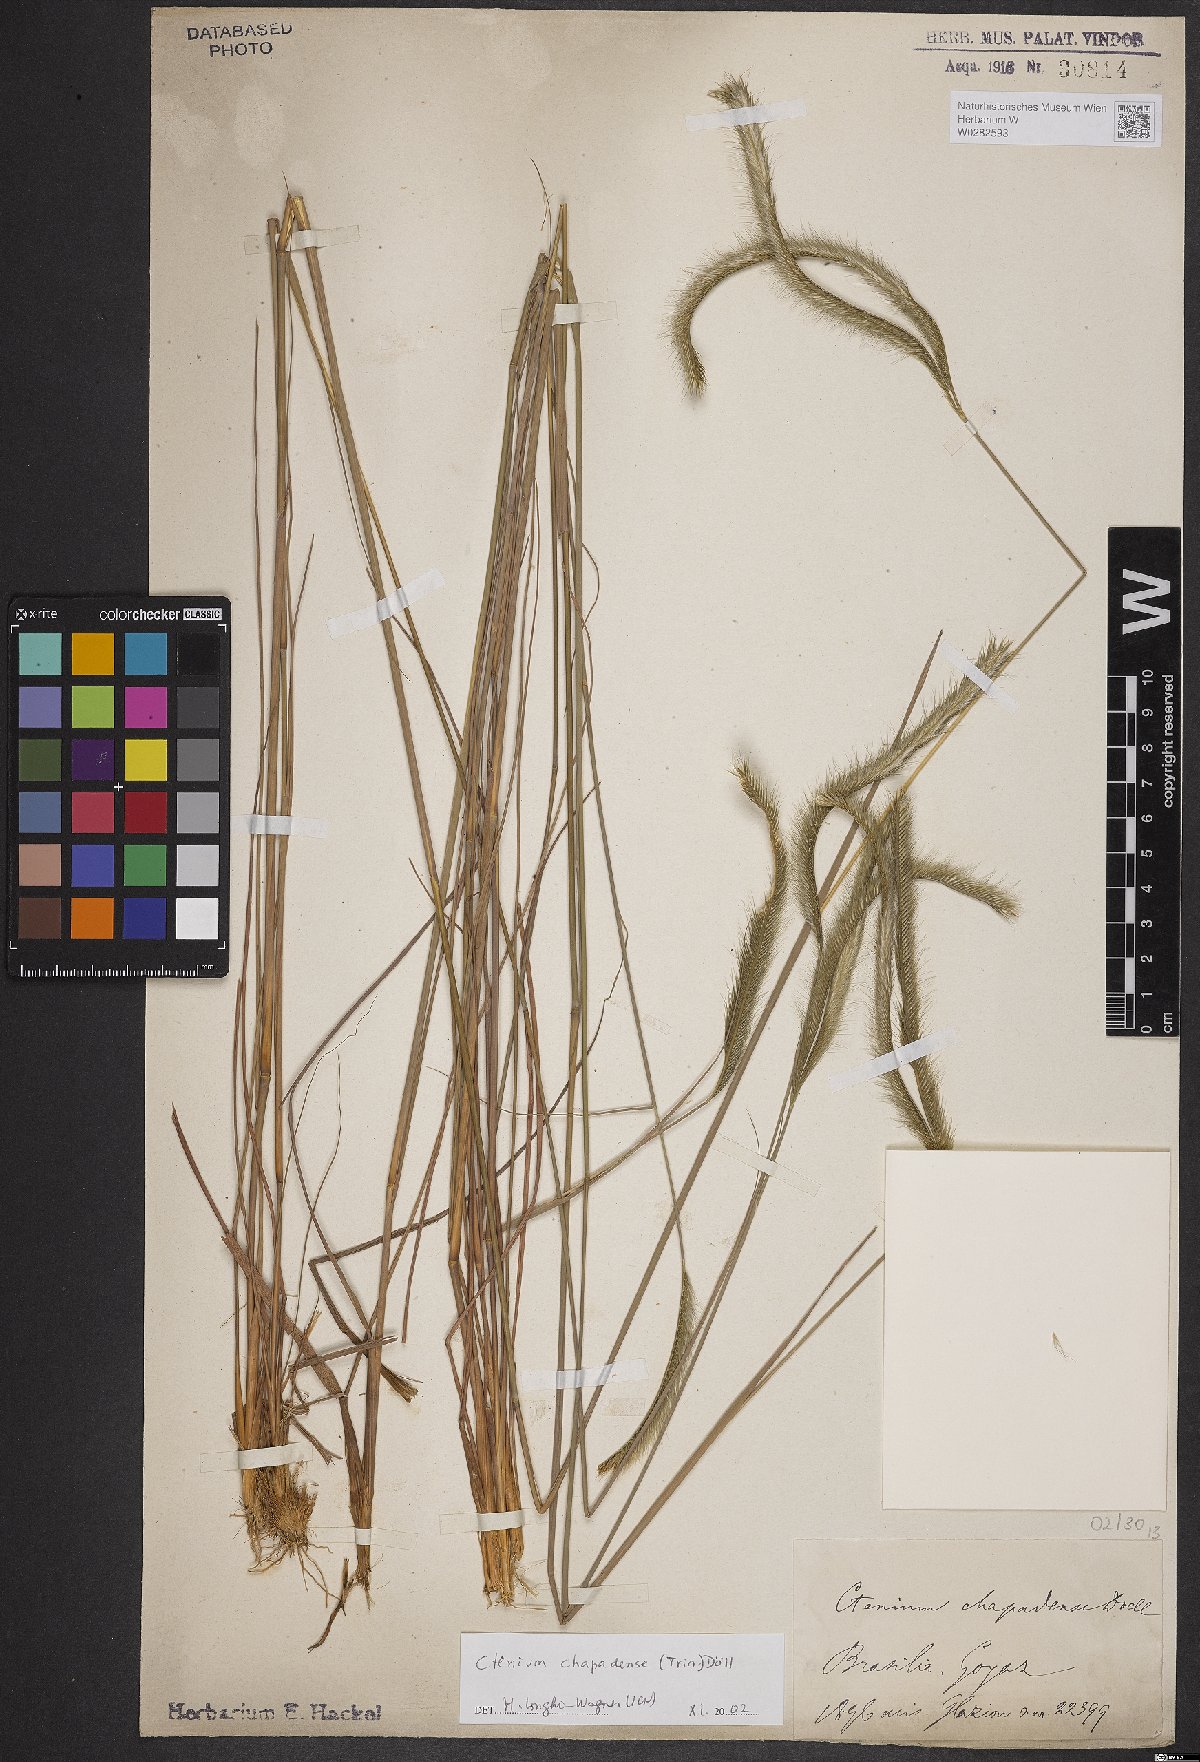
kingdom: Plantae
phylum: Tracheophyta
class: Liliopsida
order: Poales
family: Poaceae
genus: Ctenium
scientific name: Ctenium chapadense
